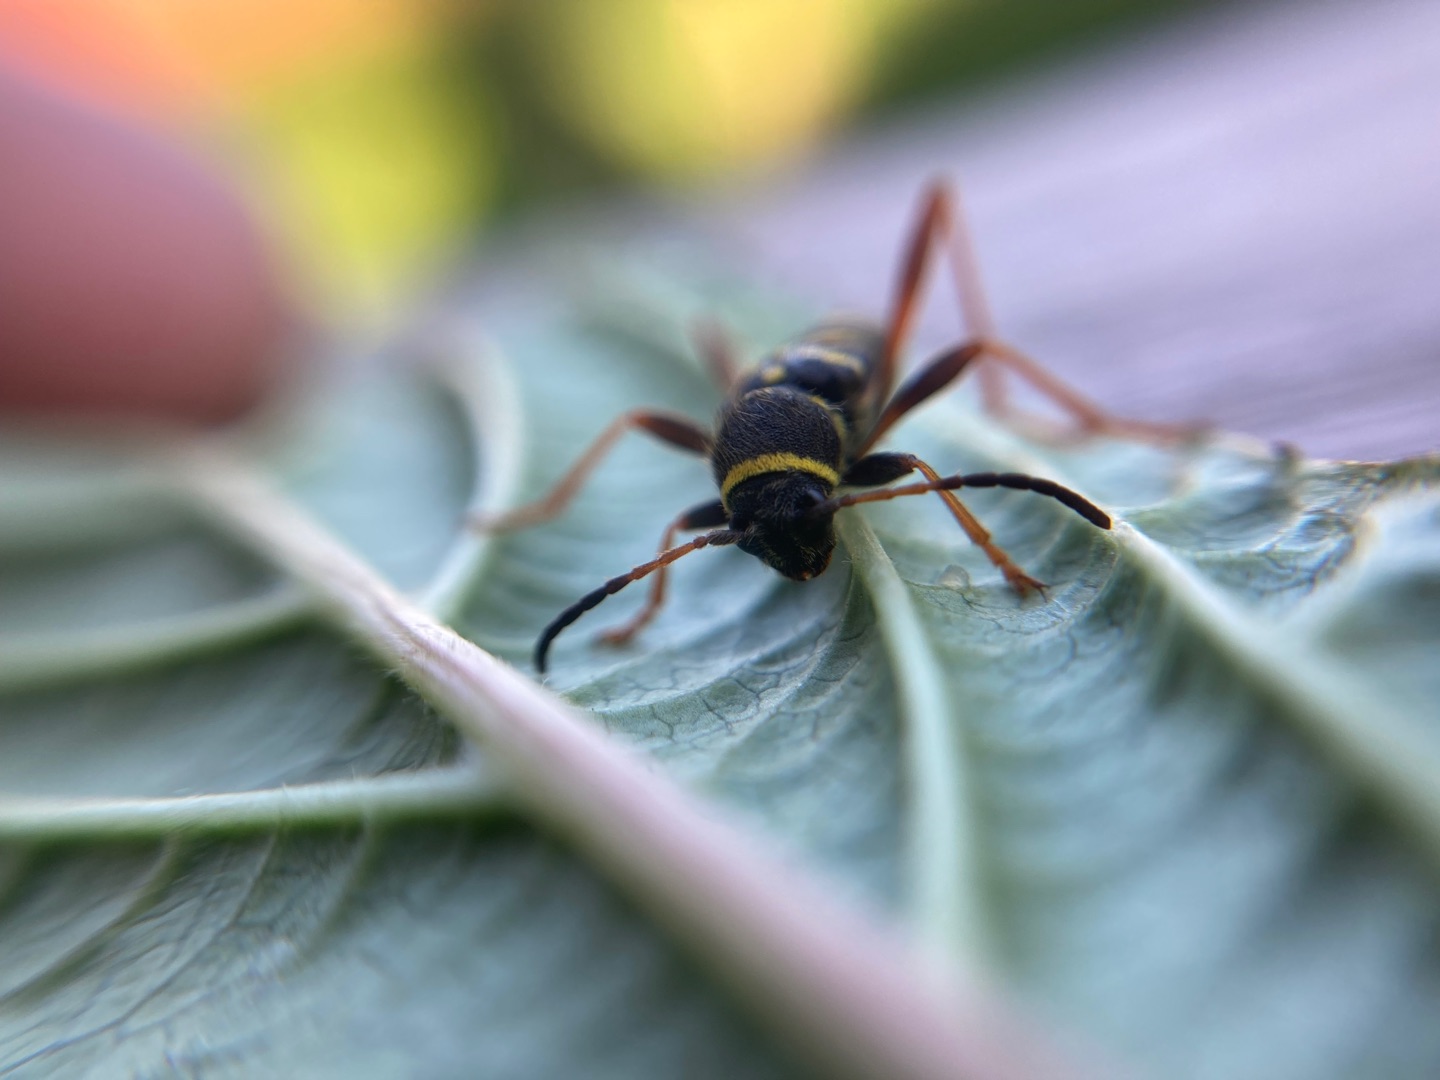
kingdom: Animalia
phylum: Arthropoda
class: Insecta
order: Coleoptera
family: Cerambycidae
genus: Clytus
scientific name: Clytus arietis
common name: Lille hvepsebuk
